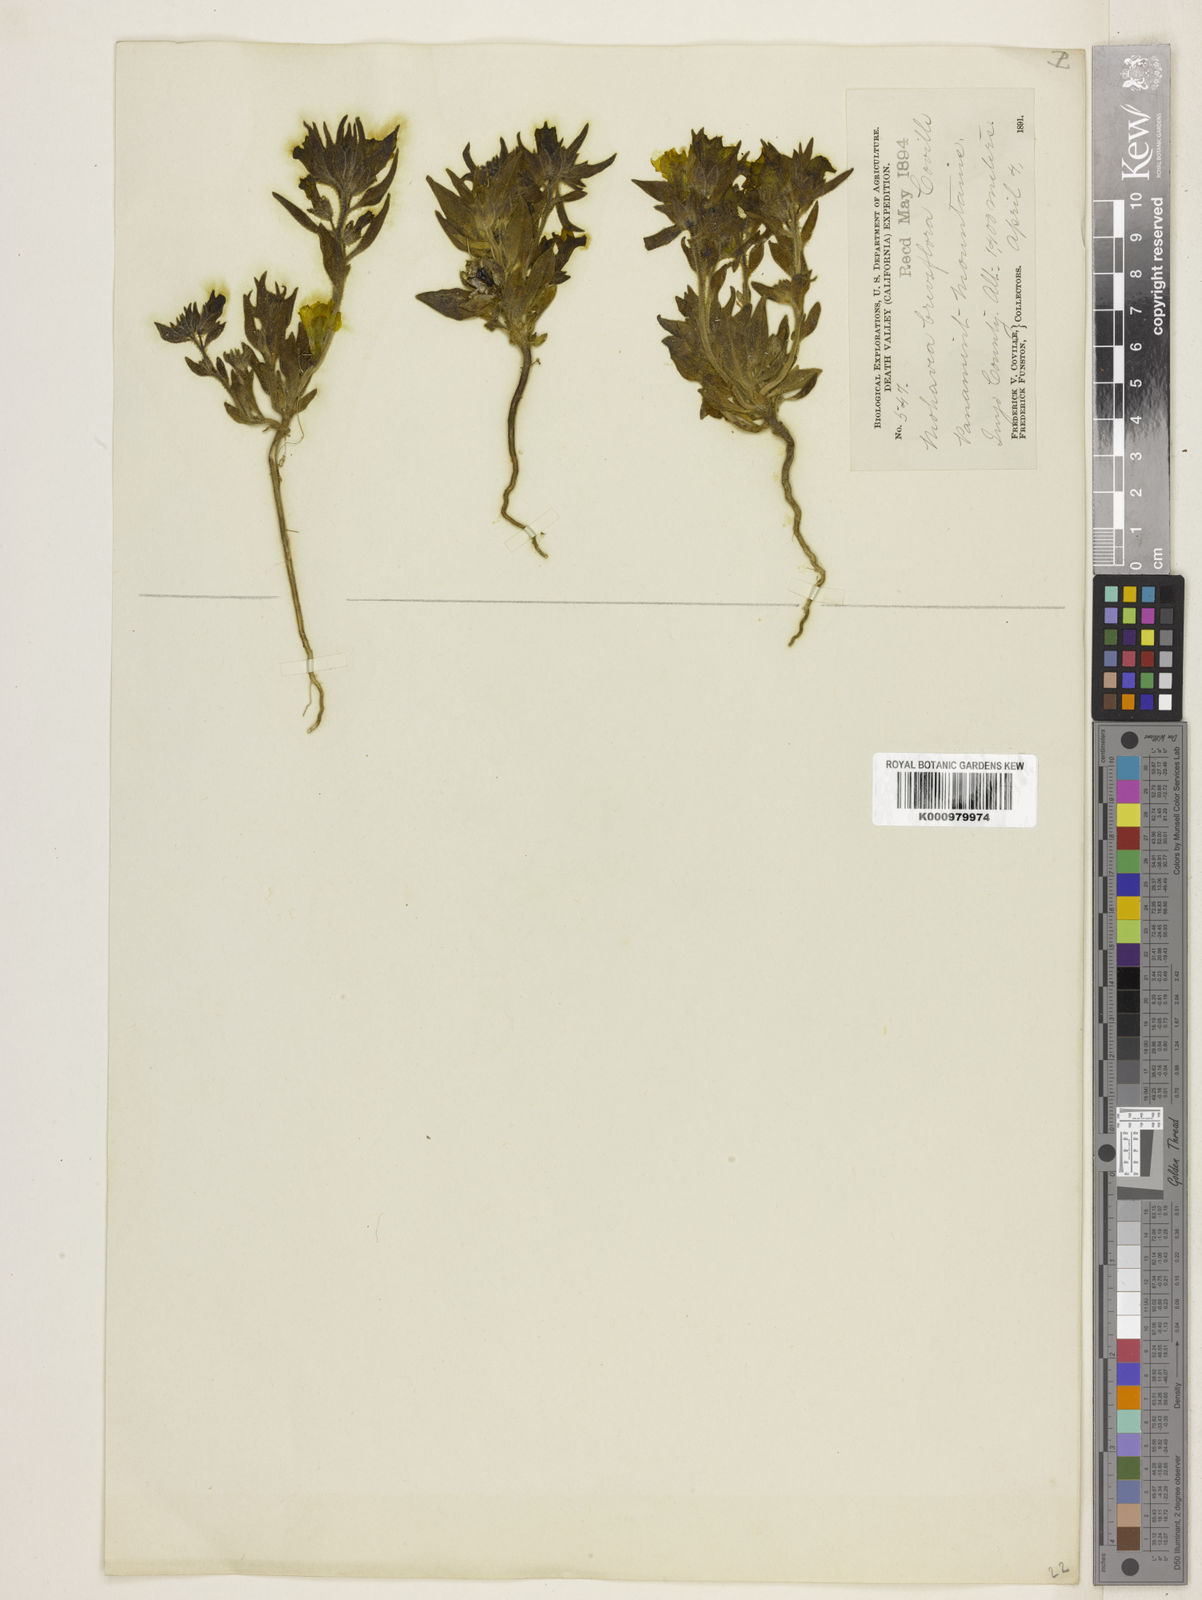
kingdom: Plantae
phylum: Tracheophyta
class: Magnoliopsida
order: Lamiales
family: Plantaginaceae
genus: Schweinfurthia
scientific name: Schweinfurthia
